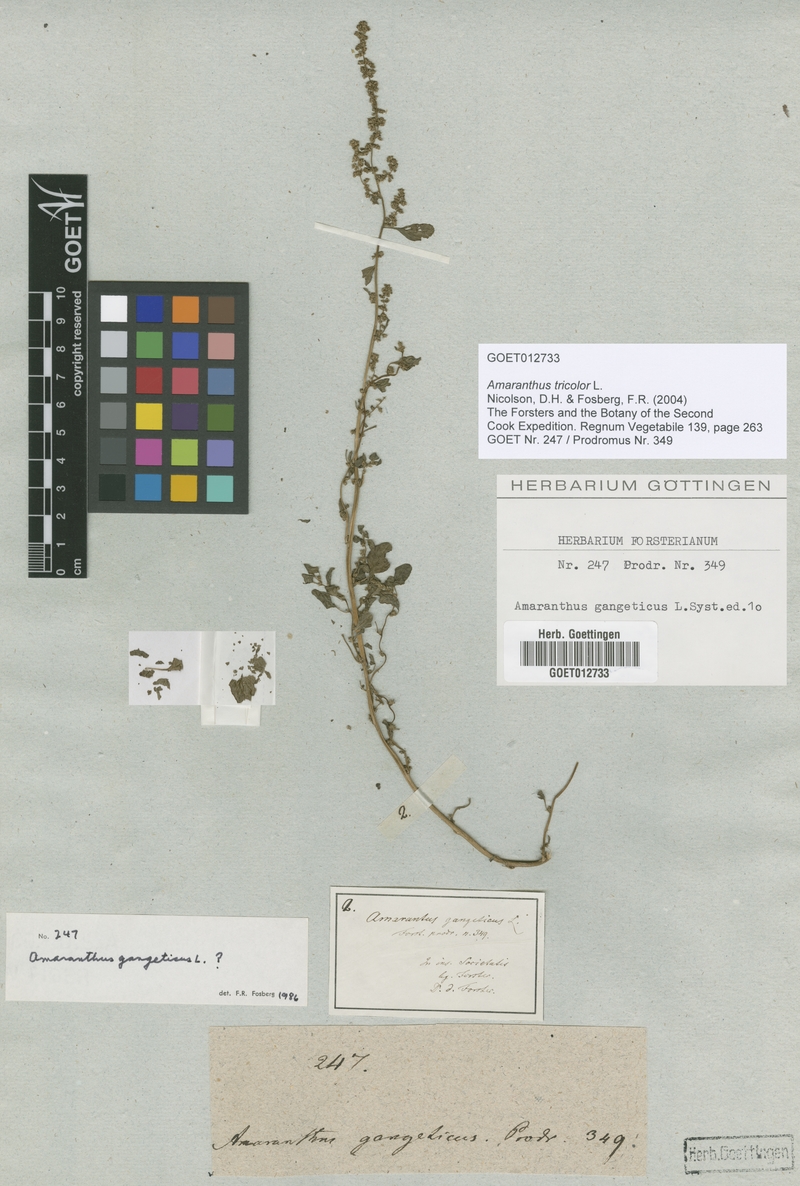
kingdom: Plantae
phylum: Tracheophyta
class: Magnoliopsida
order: Caryophyllales
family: Amaranthaceae
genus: Amaranthus
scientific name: Amaranthus tricolor
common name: Joseph's-coat
